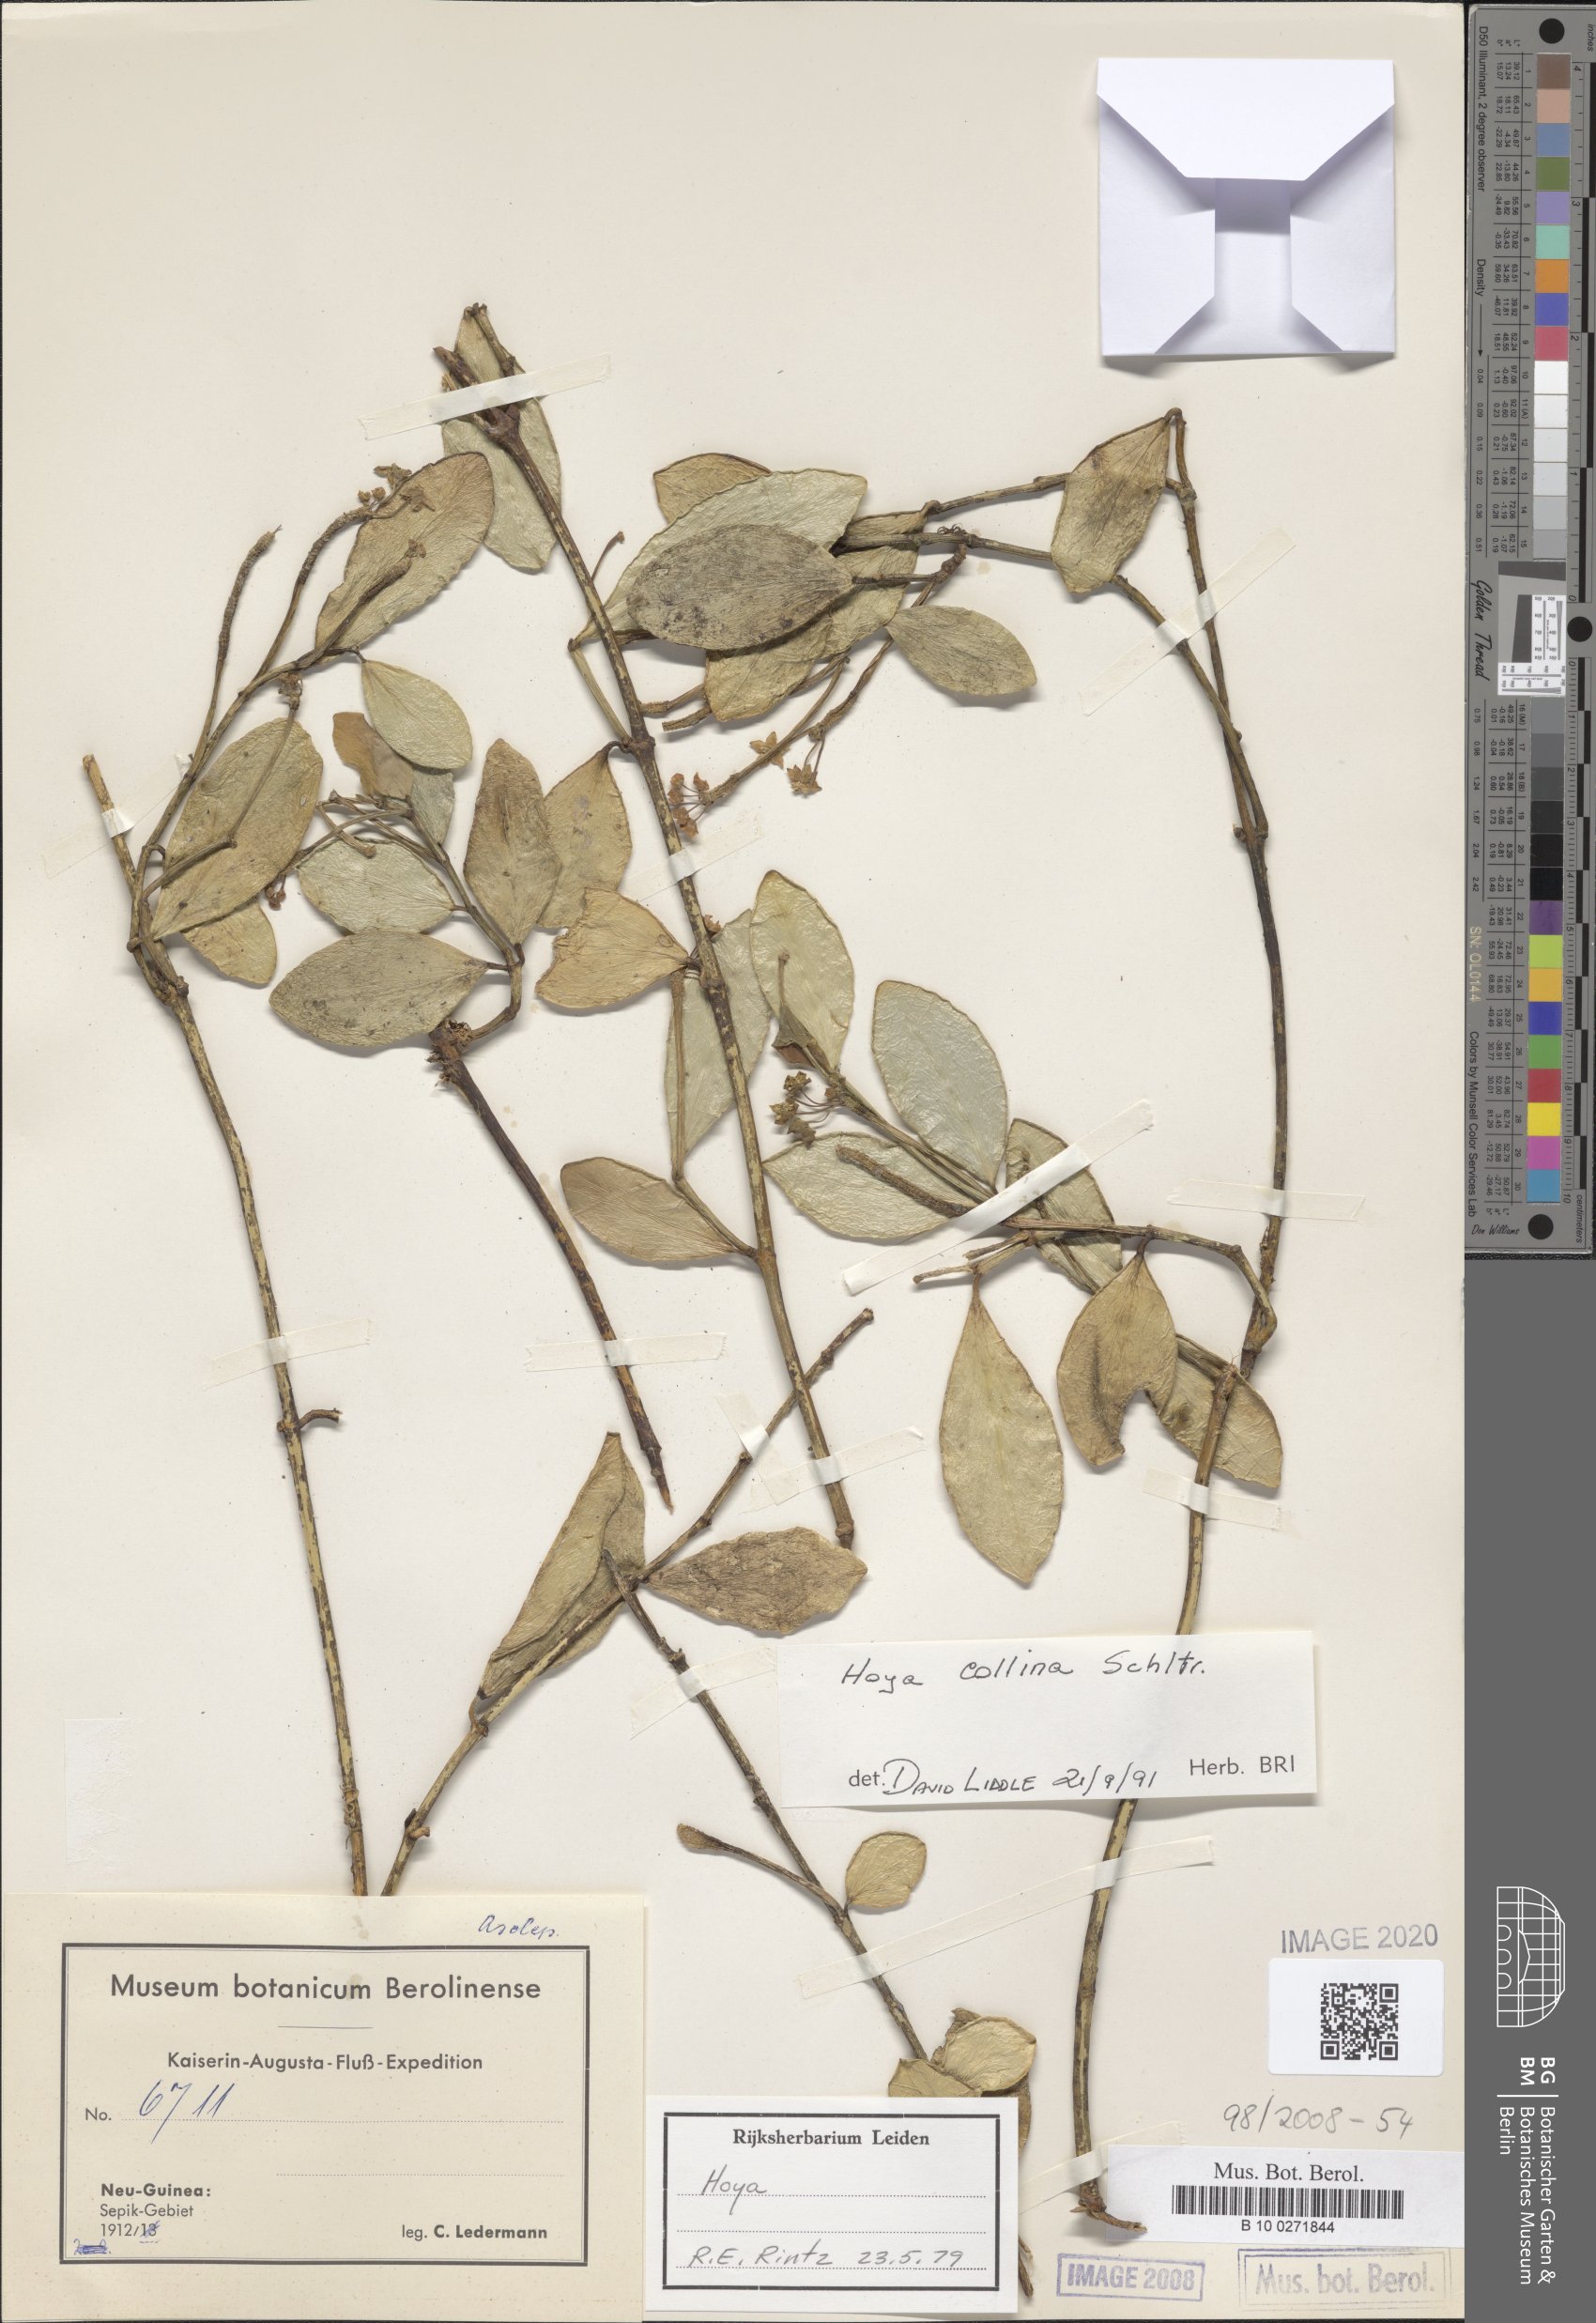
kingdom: Plantae
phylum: Tracheophyta
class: Magnoliopsida
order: Gentianales
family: Apocynaceae
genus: Hoya
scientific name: Hoya collina
